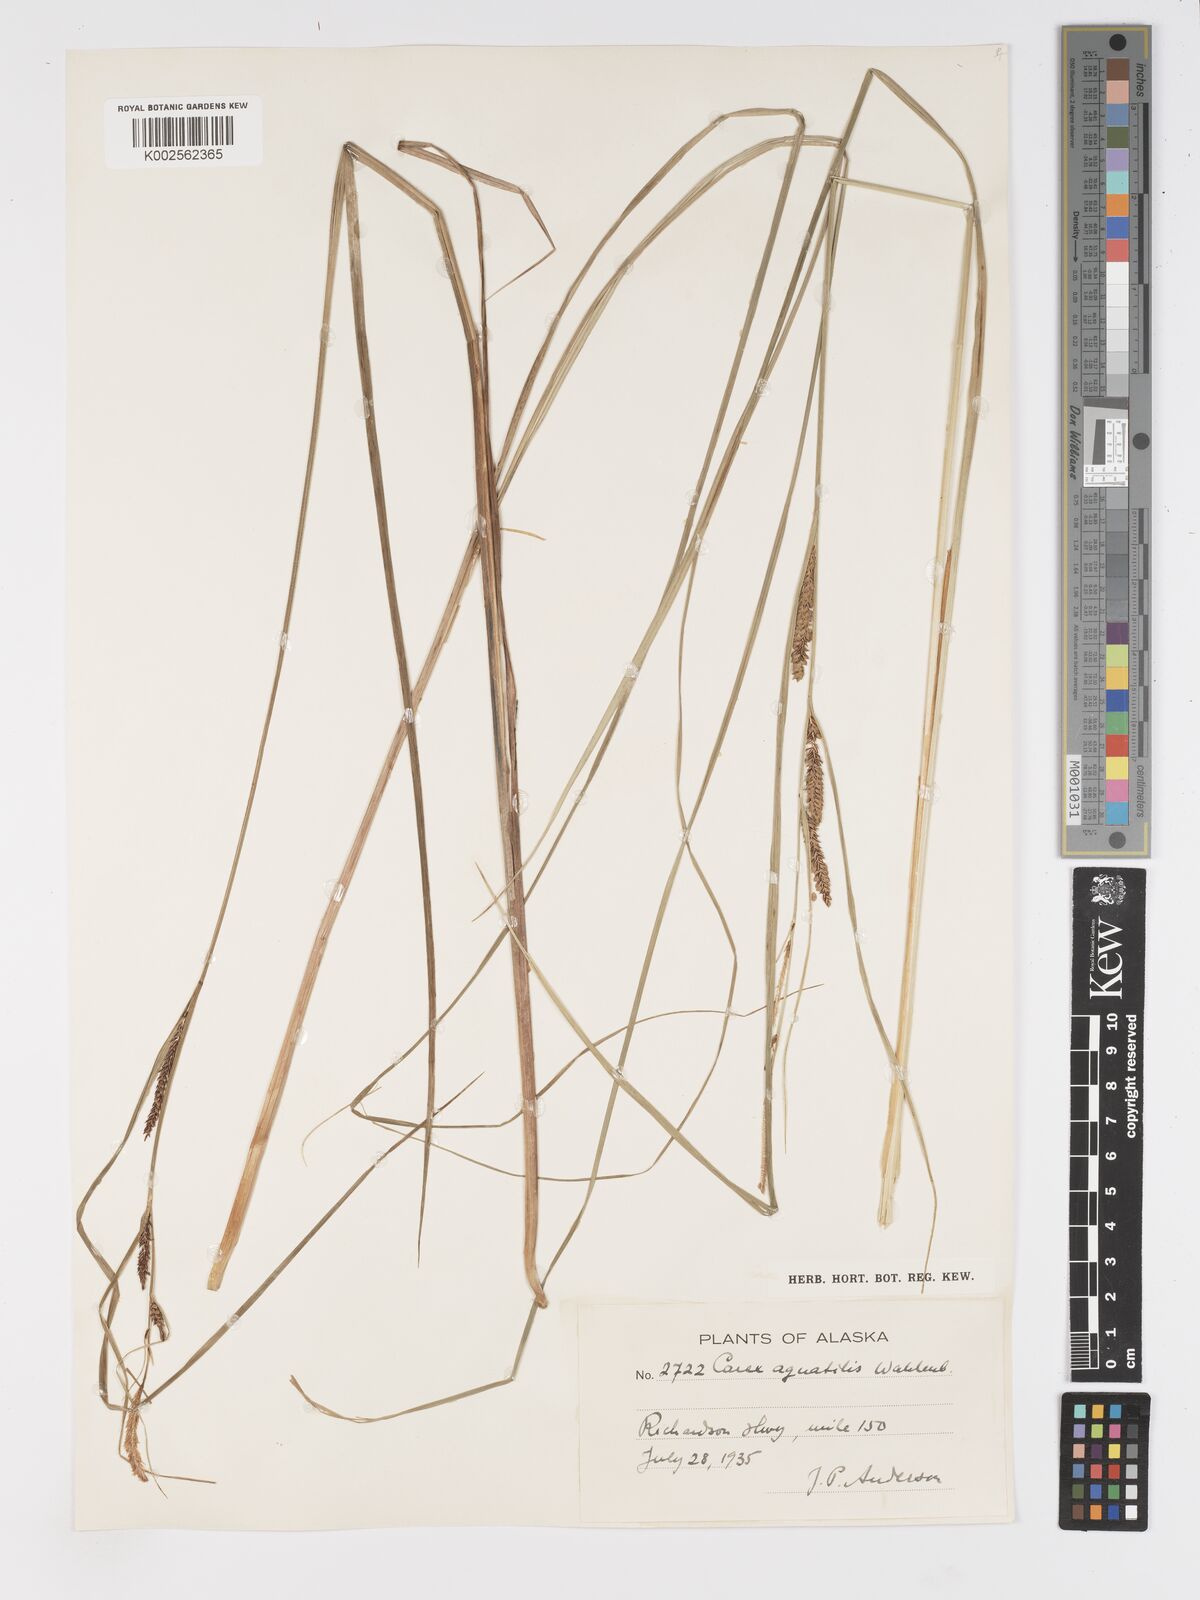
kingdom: Plantae
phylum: Tracheophyta
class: Liliopsida
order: Poales
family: Cyperaceae
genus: Carex
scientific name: Carex aquatilis
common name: Water sedge
